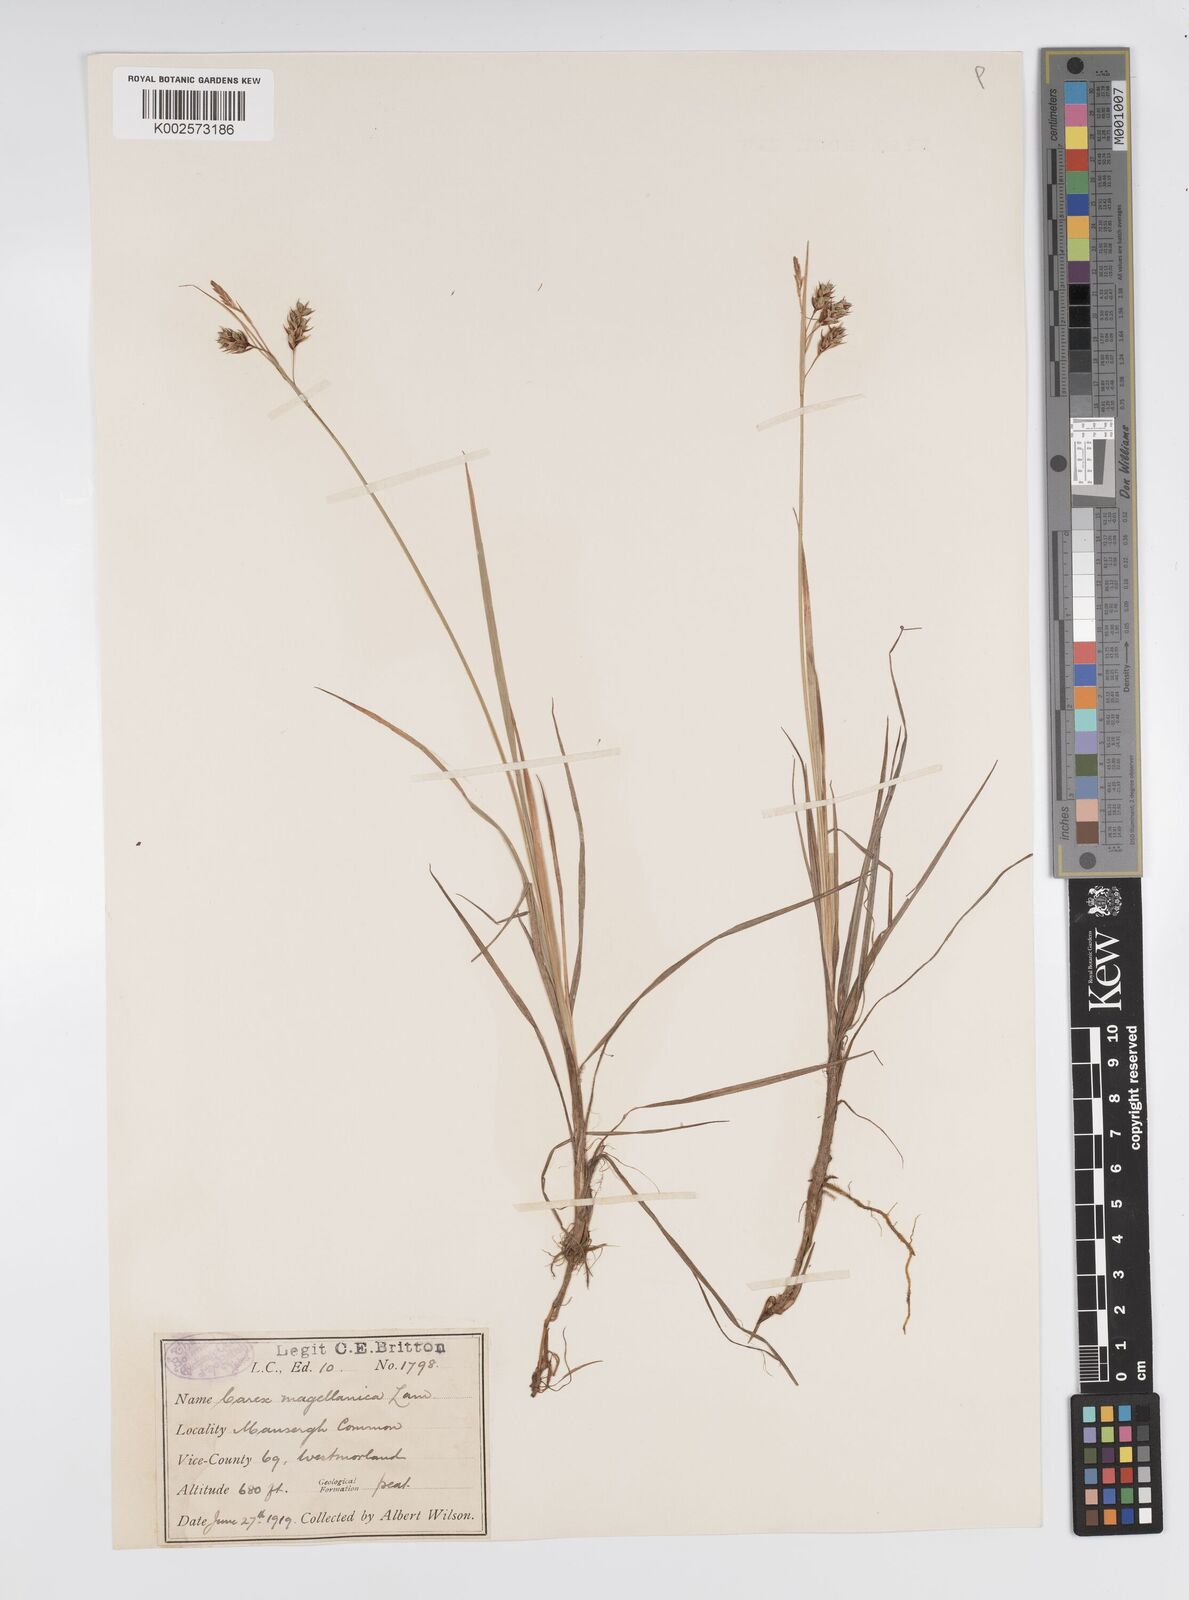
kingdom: Plantae
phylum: Tracheophyta
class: Liliopsida
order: Poales
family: Cyperaceae
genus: Carex
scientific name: Carex magellanica
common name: Bog sedge
